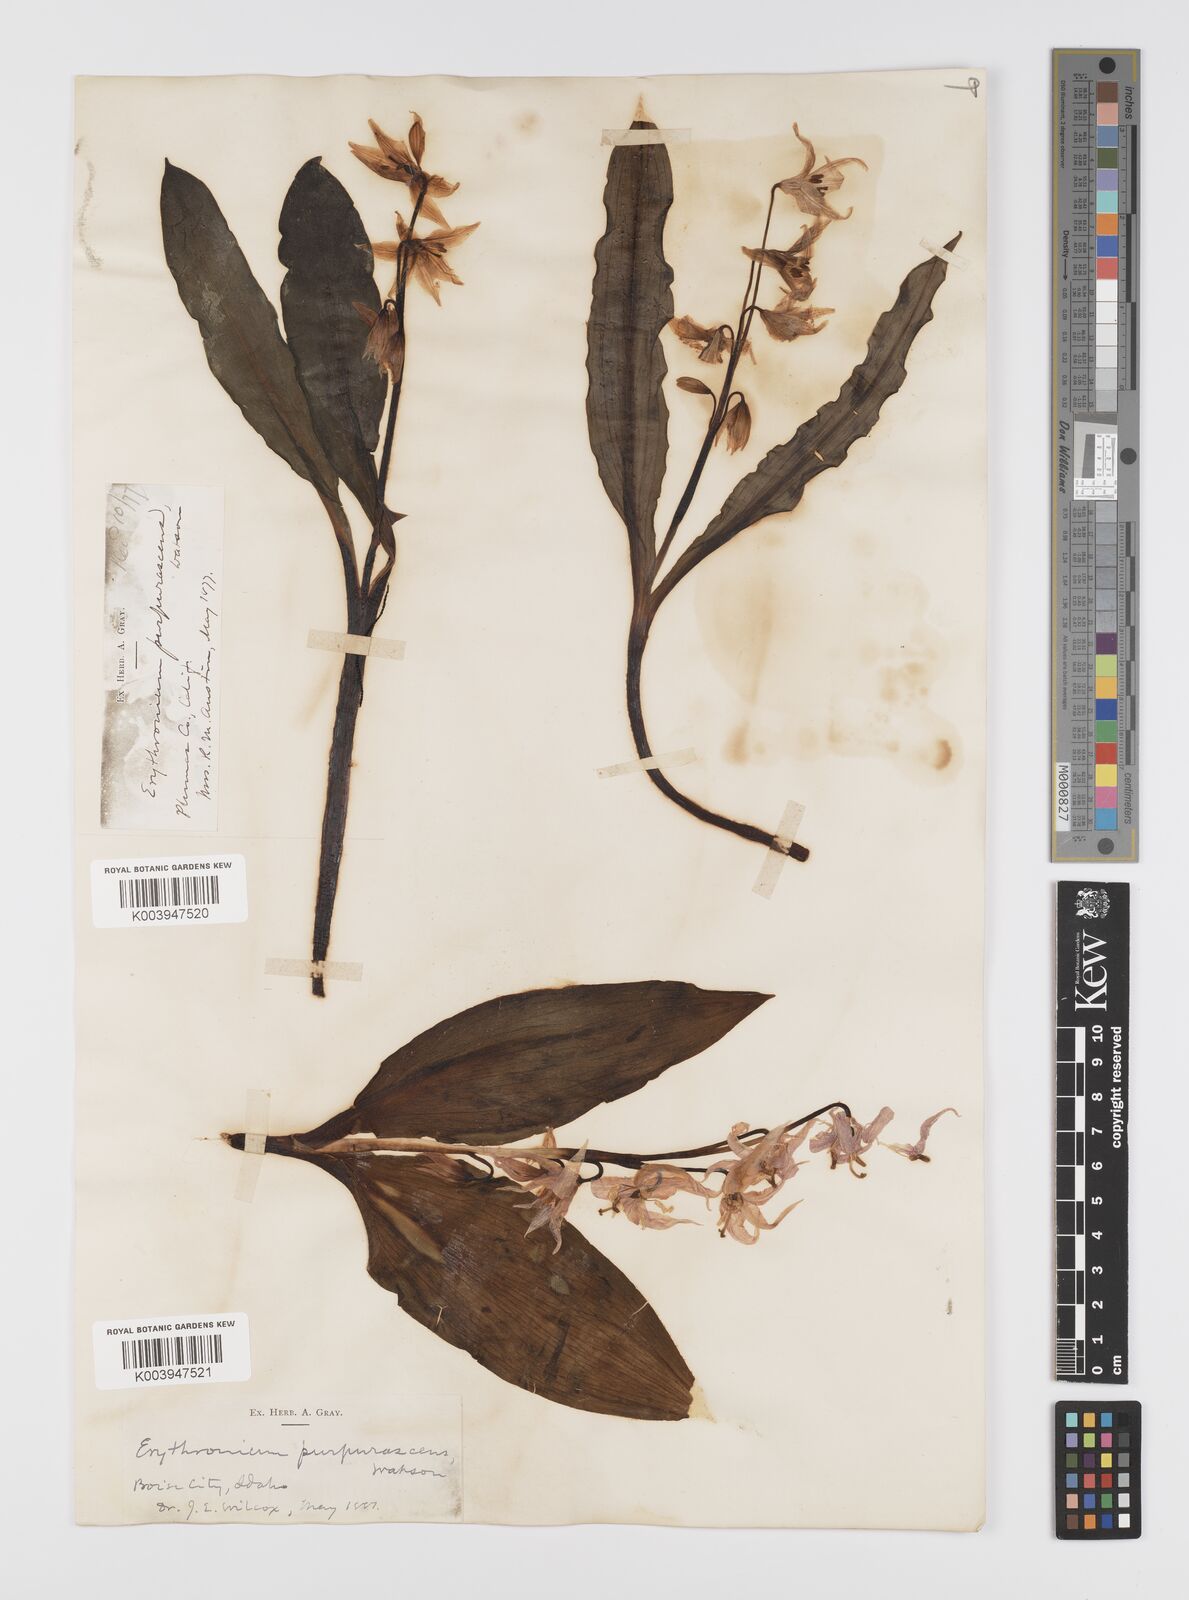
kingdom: Plantae
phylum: Tracheophyta
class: Liliopsida
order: Liliales
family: Liliaceae
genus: Erythronium
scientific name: Erythronium purpurascens
